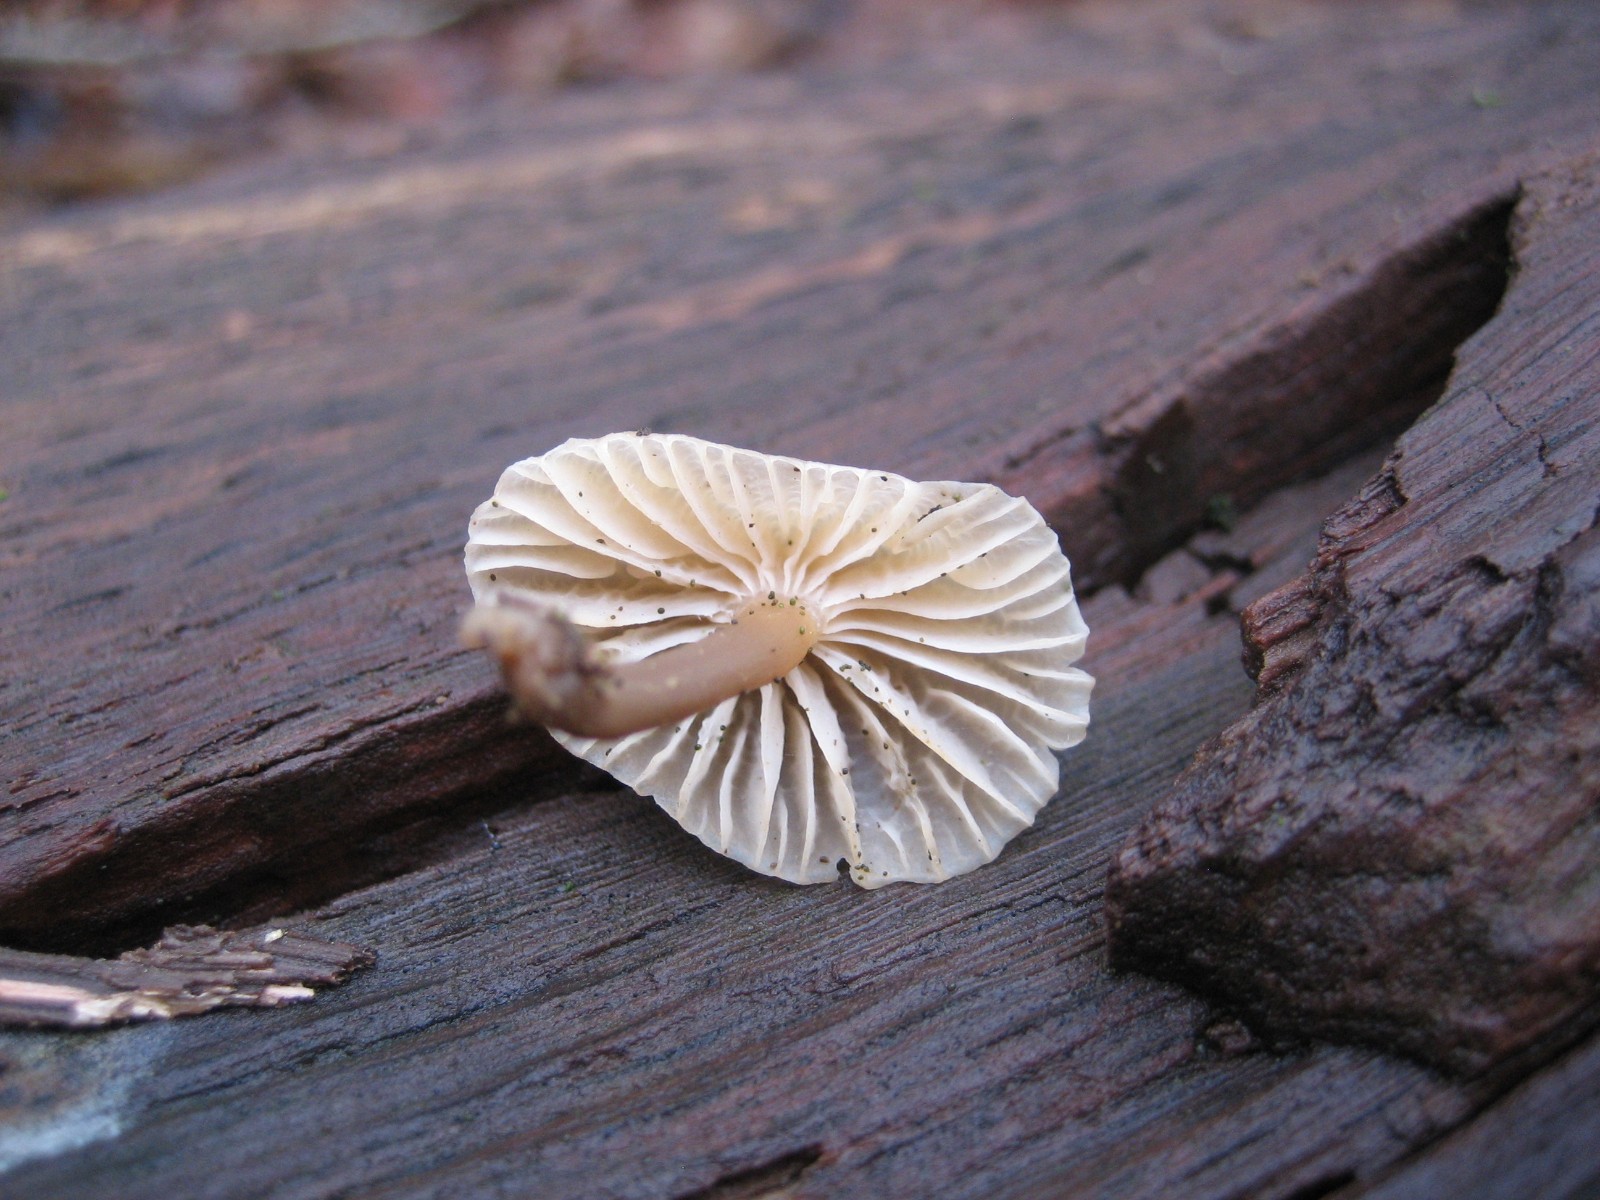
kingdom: Fungi
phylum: Basidiomycota
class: Agaricomycetes
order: Agaricales
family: Mycenaceae
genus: Mycena
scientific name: Mycena galericulata
